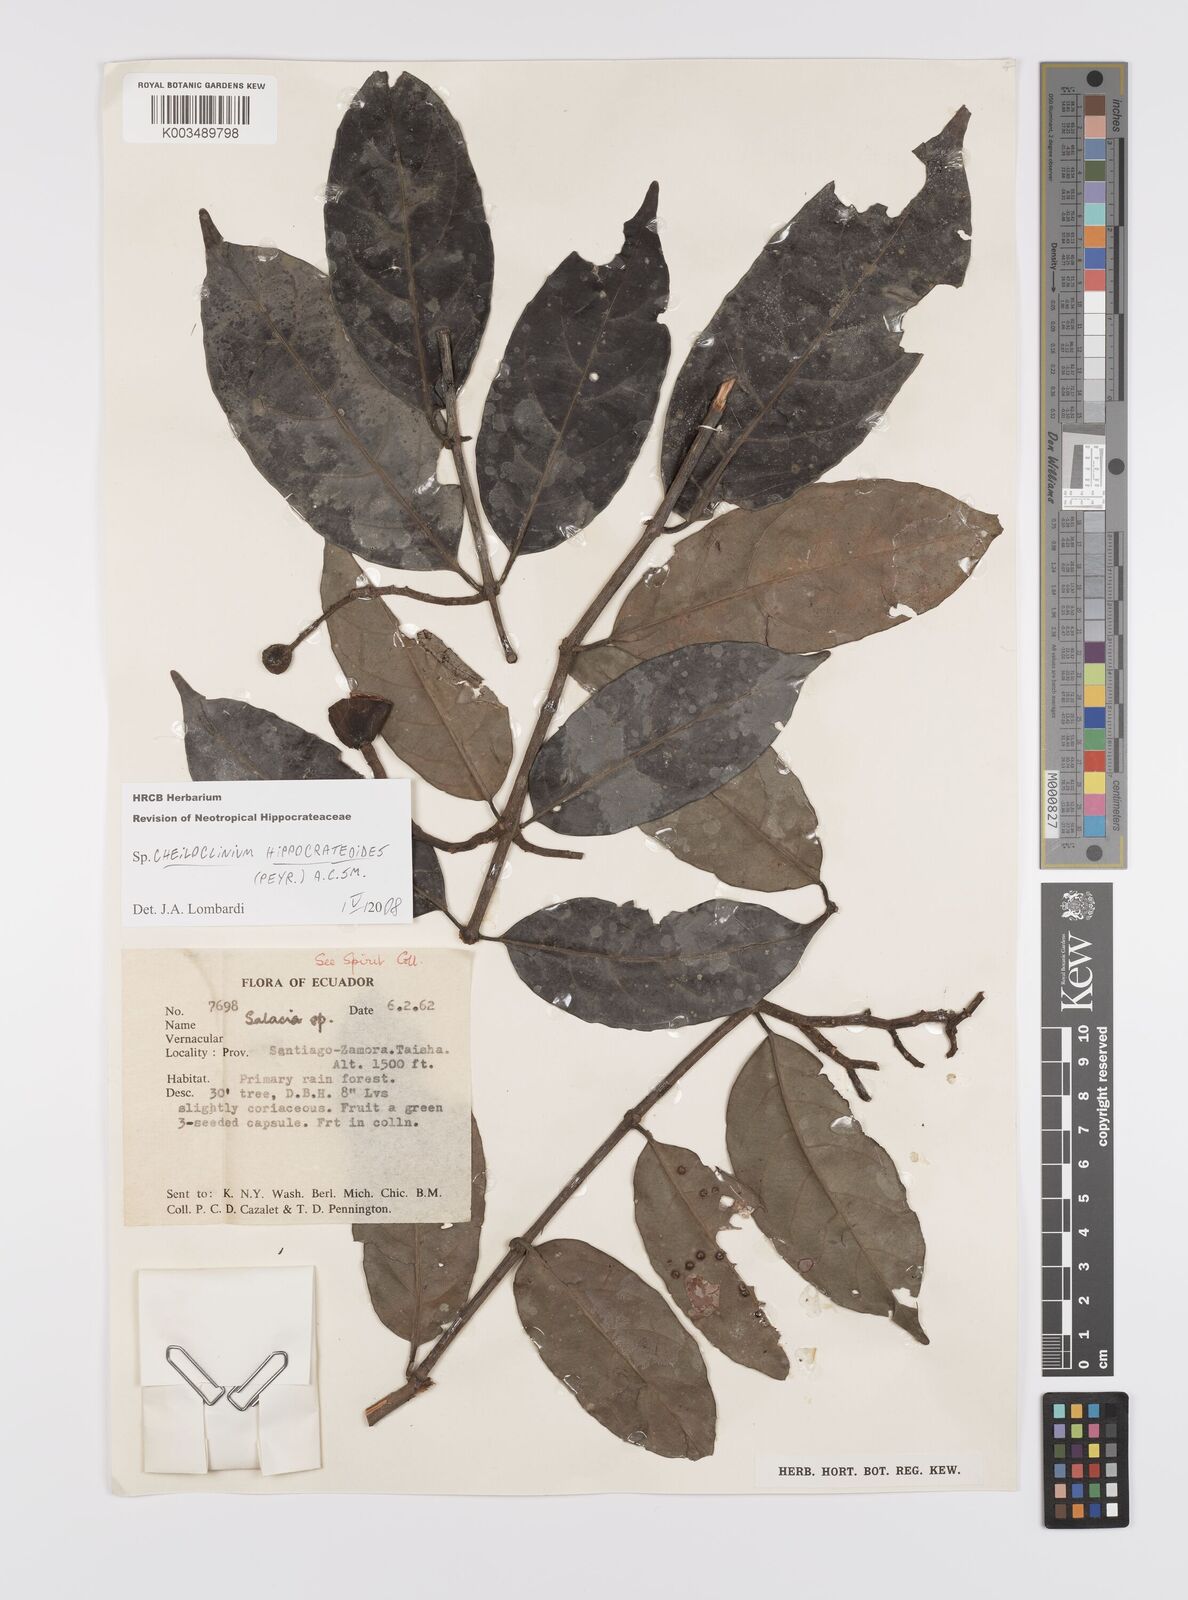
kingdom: Plantae
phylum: Tracheophyta
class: Magnoliopsida
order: Celastrales
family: Celastraceae
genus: Cheiloclinium
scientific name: Cheiloclinium hippocrateoides
